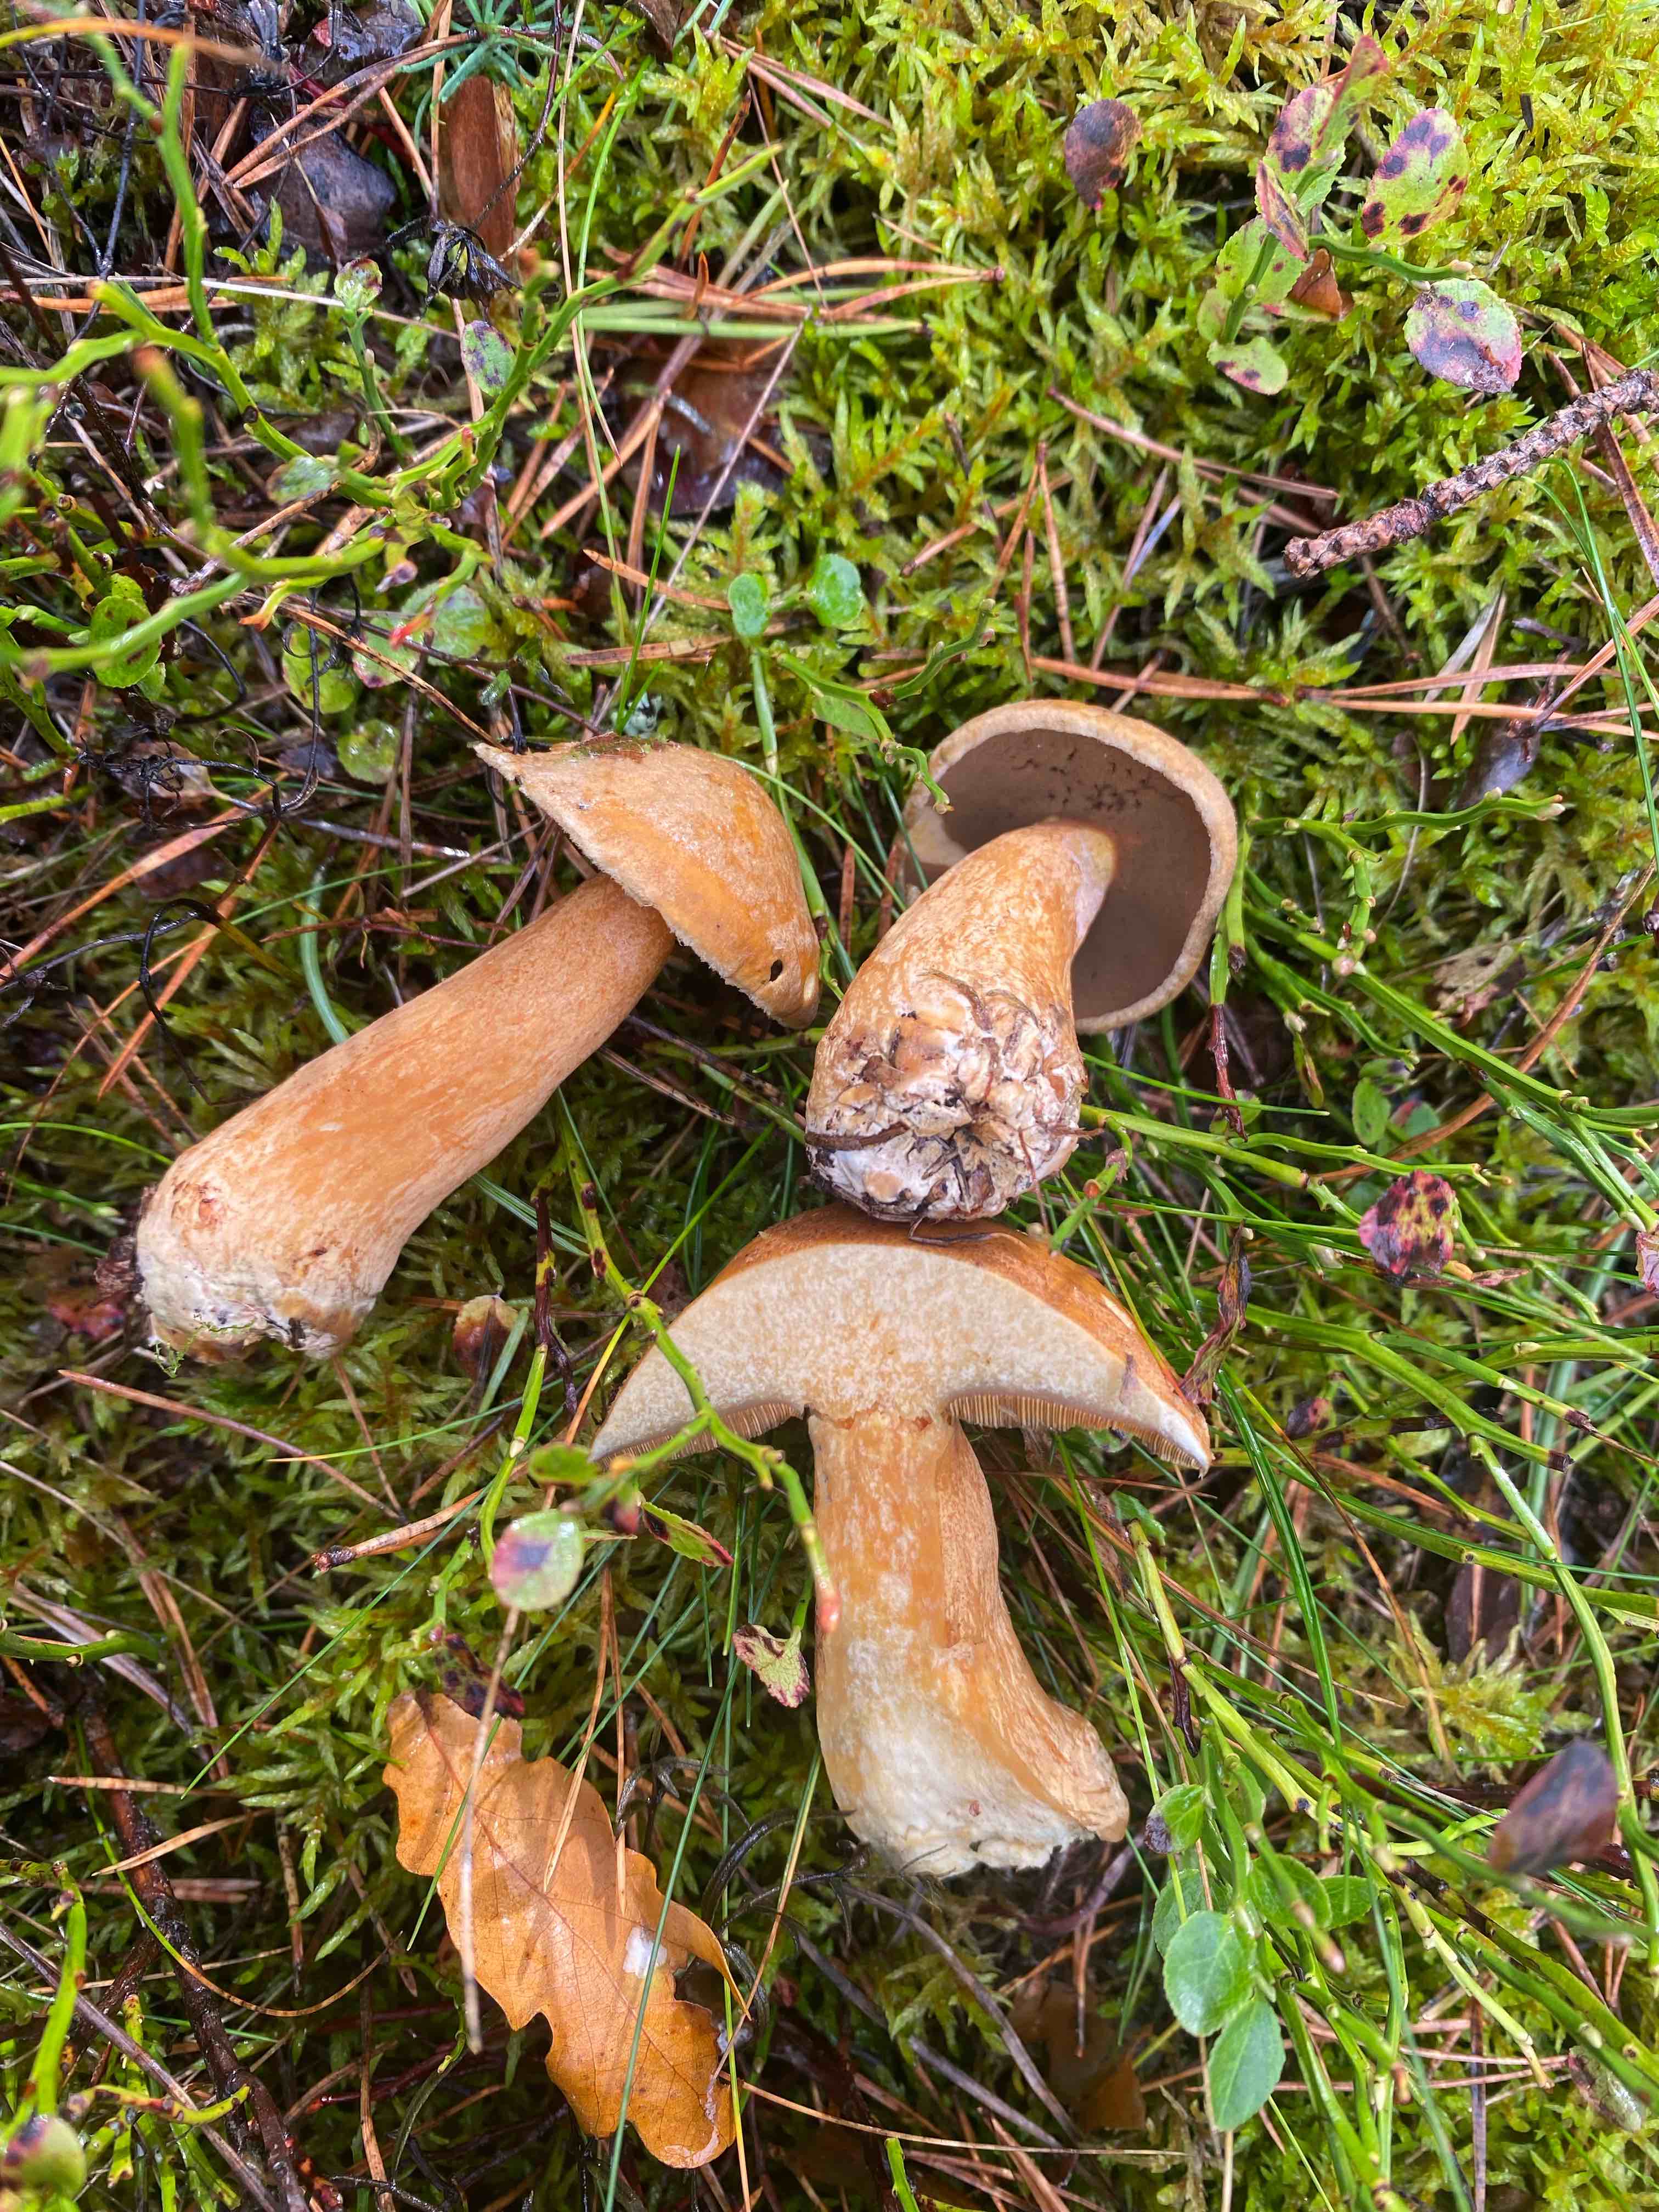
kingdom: Fungi
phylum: Basidiomycota
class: Agaricomycetes
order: Boletales
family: Suillaceae
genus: Suillus
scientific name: Suillus variegatus
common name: broget slimrørhat
